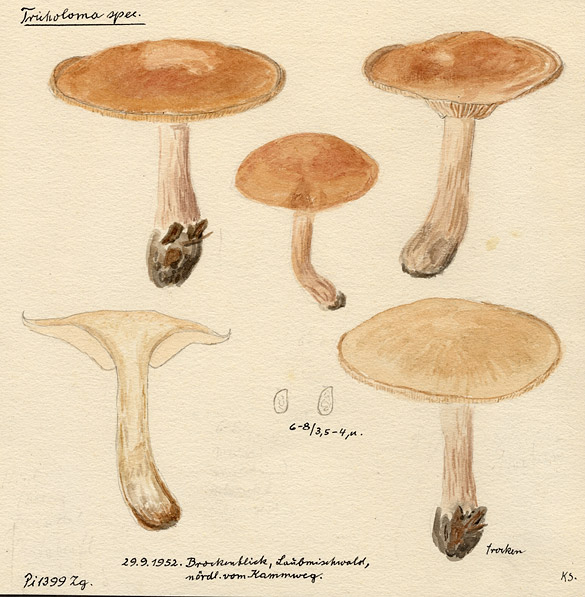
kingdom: Fungi
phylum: Basidiomycota
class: Agaricomycetes
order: Agaricales
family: Tricholomataceae
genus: Tricholoma
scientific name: Tricholoma
